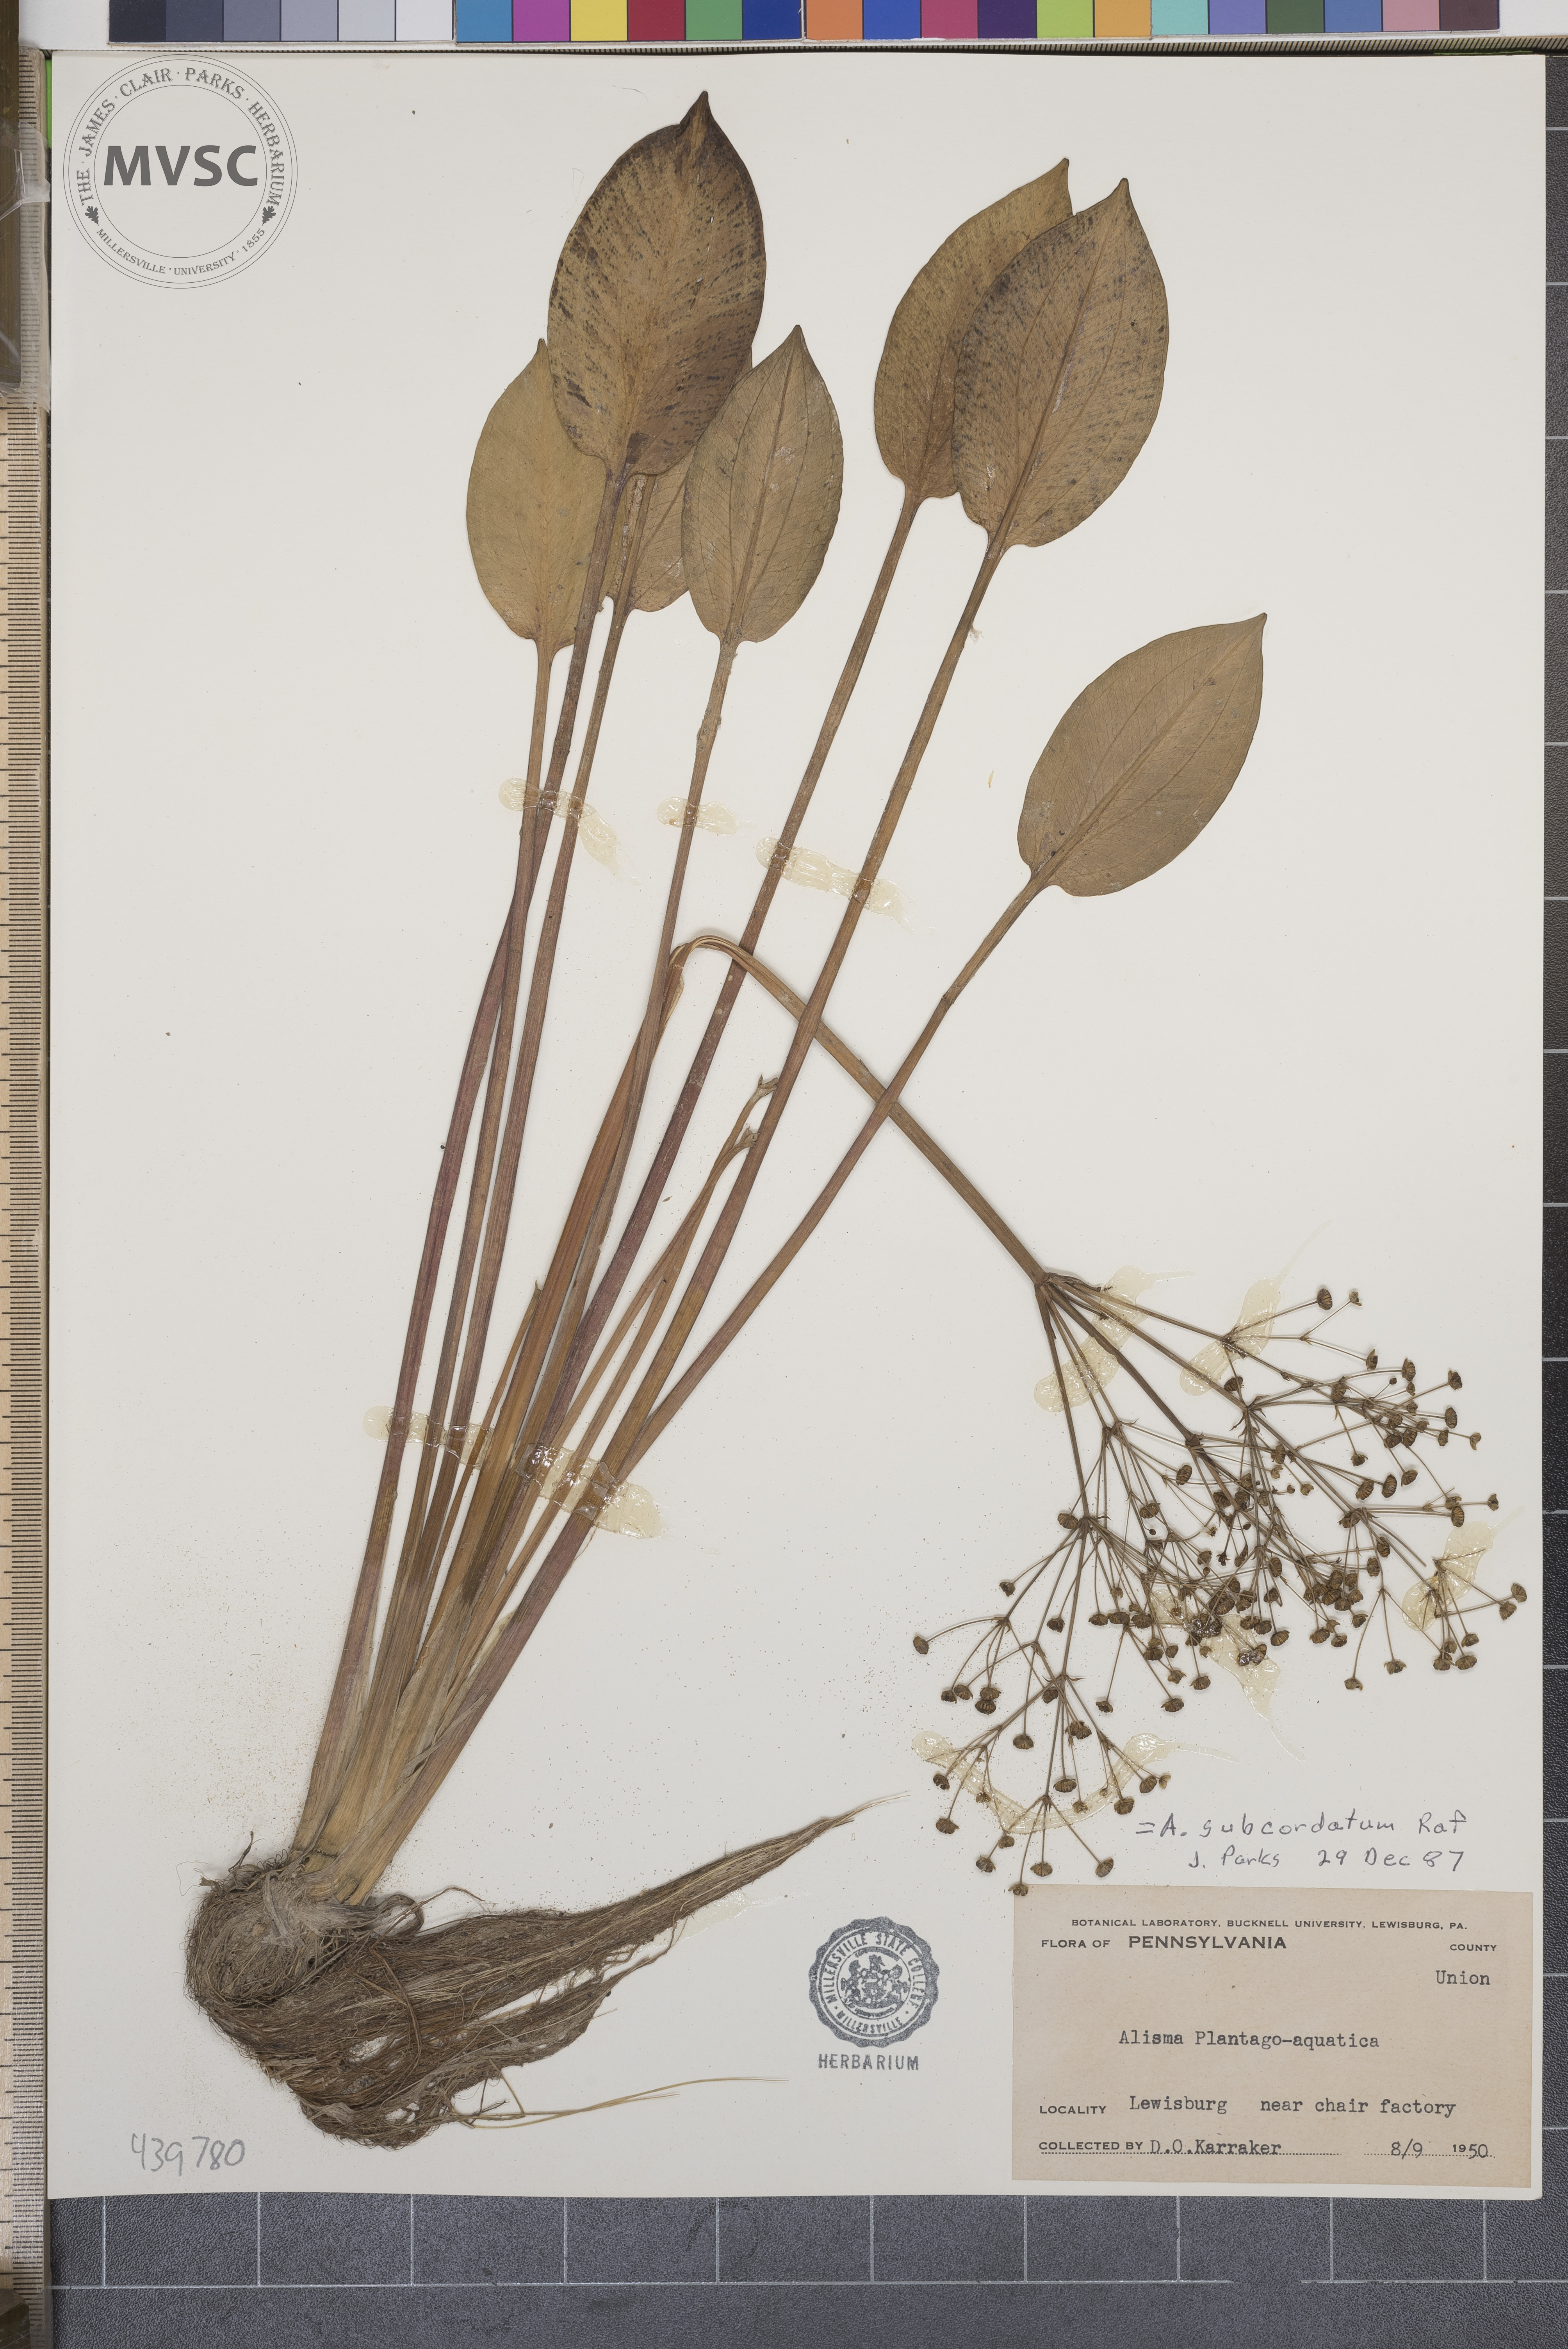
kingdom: Plantae
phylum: Tracheophyta
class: Liliopsida
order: Alismatales
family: Alismataceae
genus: Alisma
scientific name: Alisma subcordatum
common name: Southern water-plantain
